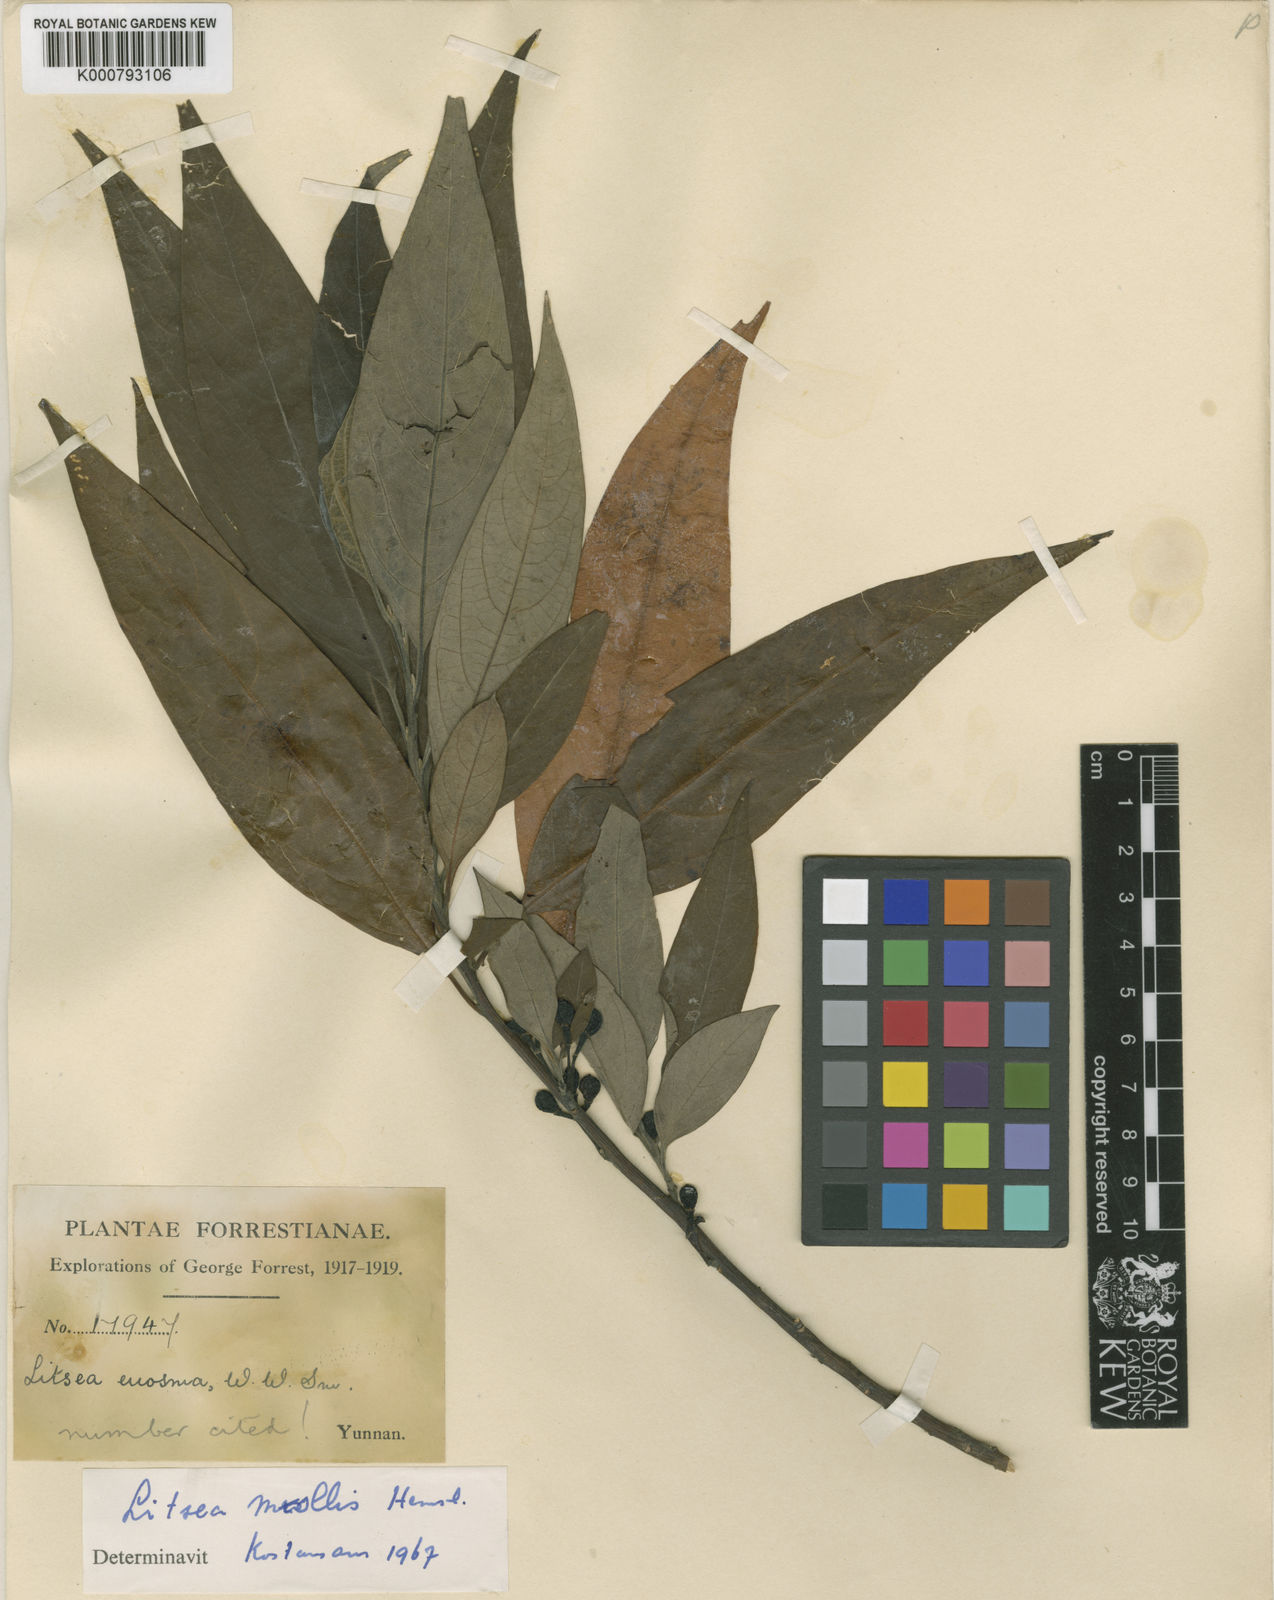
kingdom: Plantae
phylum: Tracheophyta
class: Magnoliopsida
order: Laurales
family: Lauraceae
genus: Litsea
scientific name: Litsea euosma
